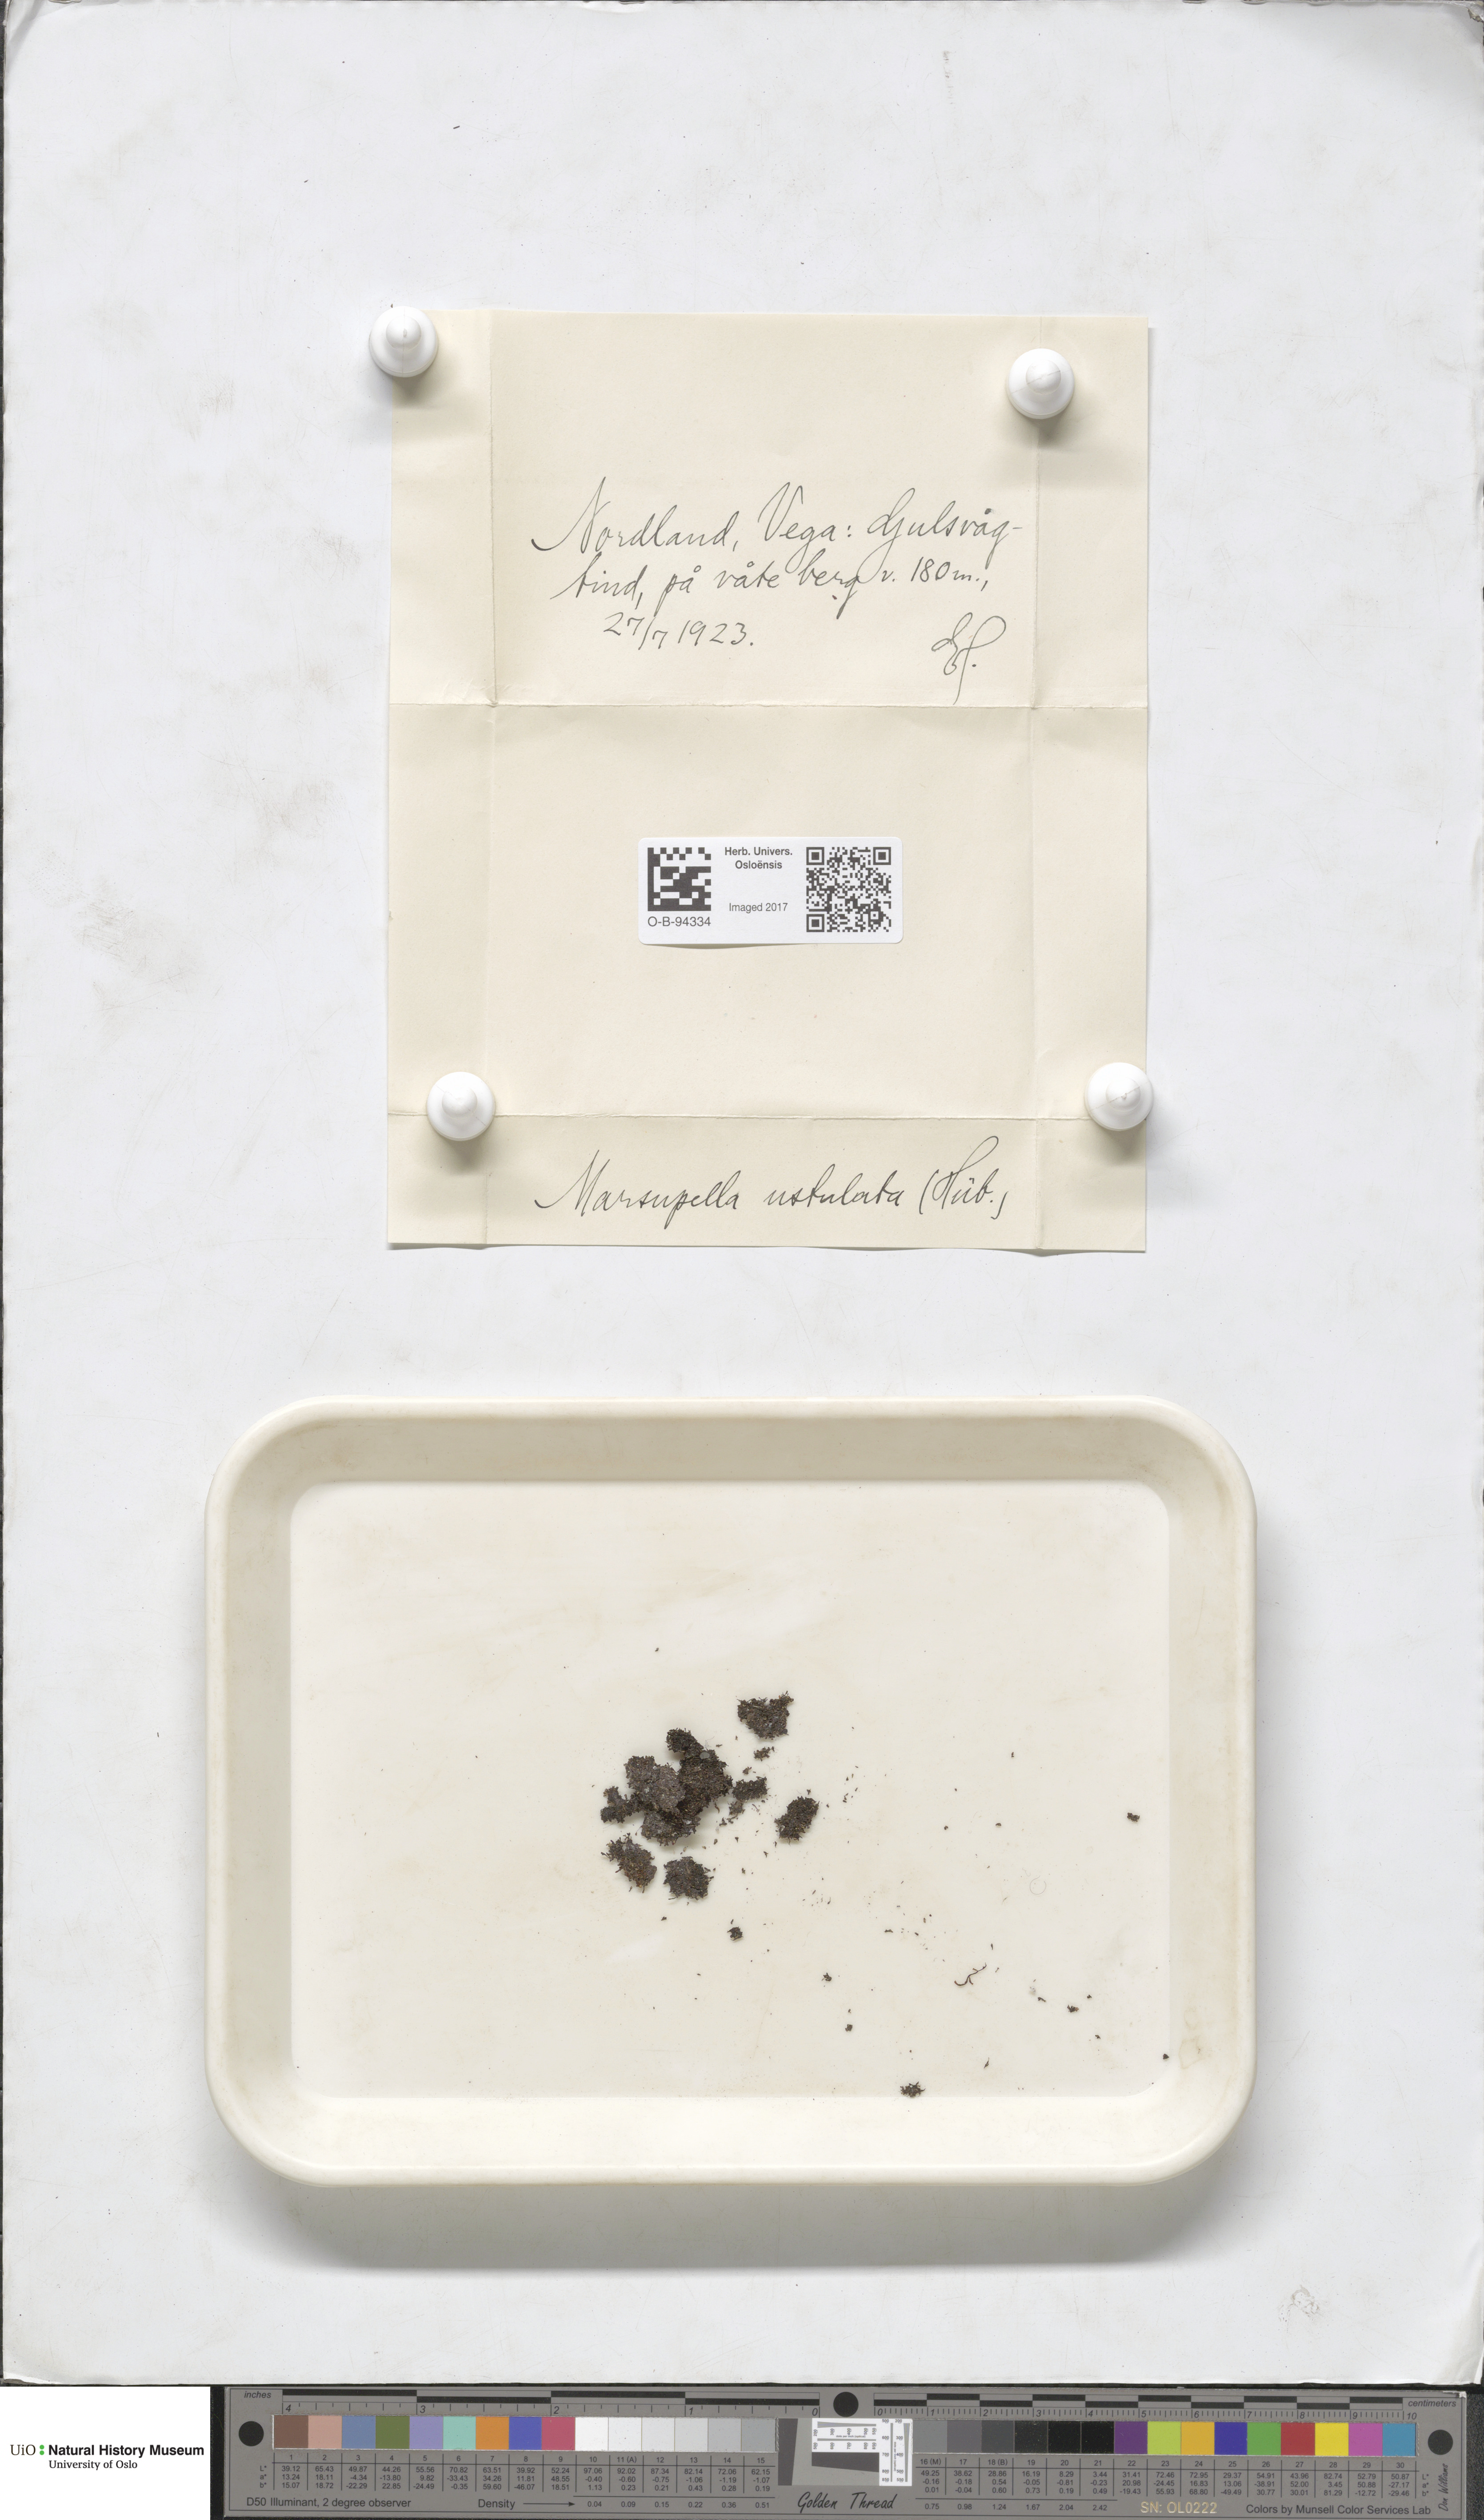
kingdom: Plantae
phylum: Marchantiophyta
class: Jungermanniopsida
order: Jungermanniales
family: Gymnomitriaceae
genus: Marsupella
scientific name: Marsupella sprucei
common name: Spruce s rustwort
